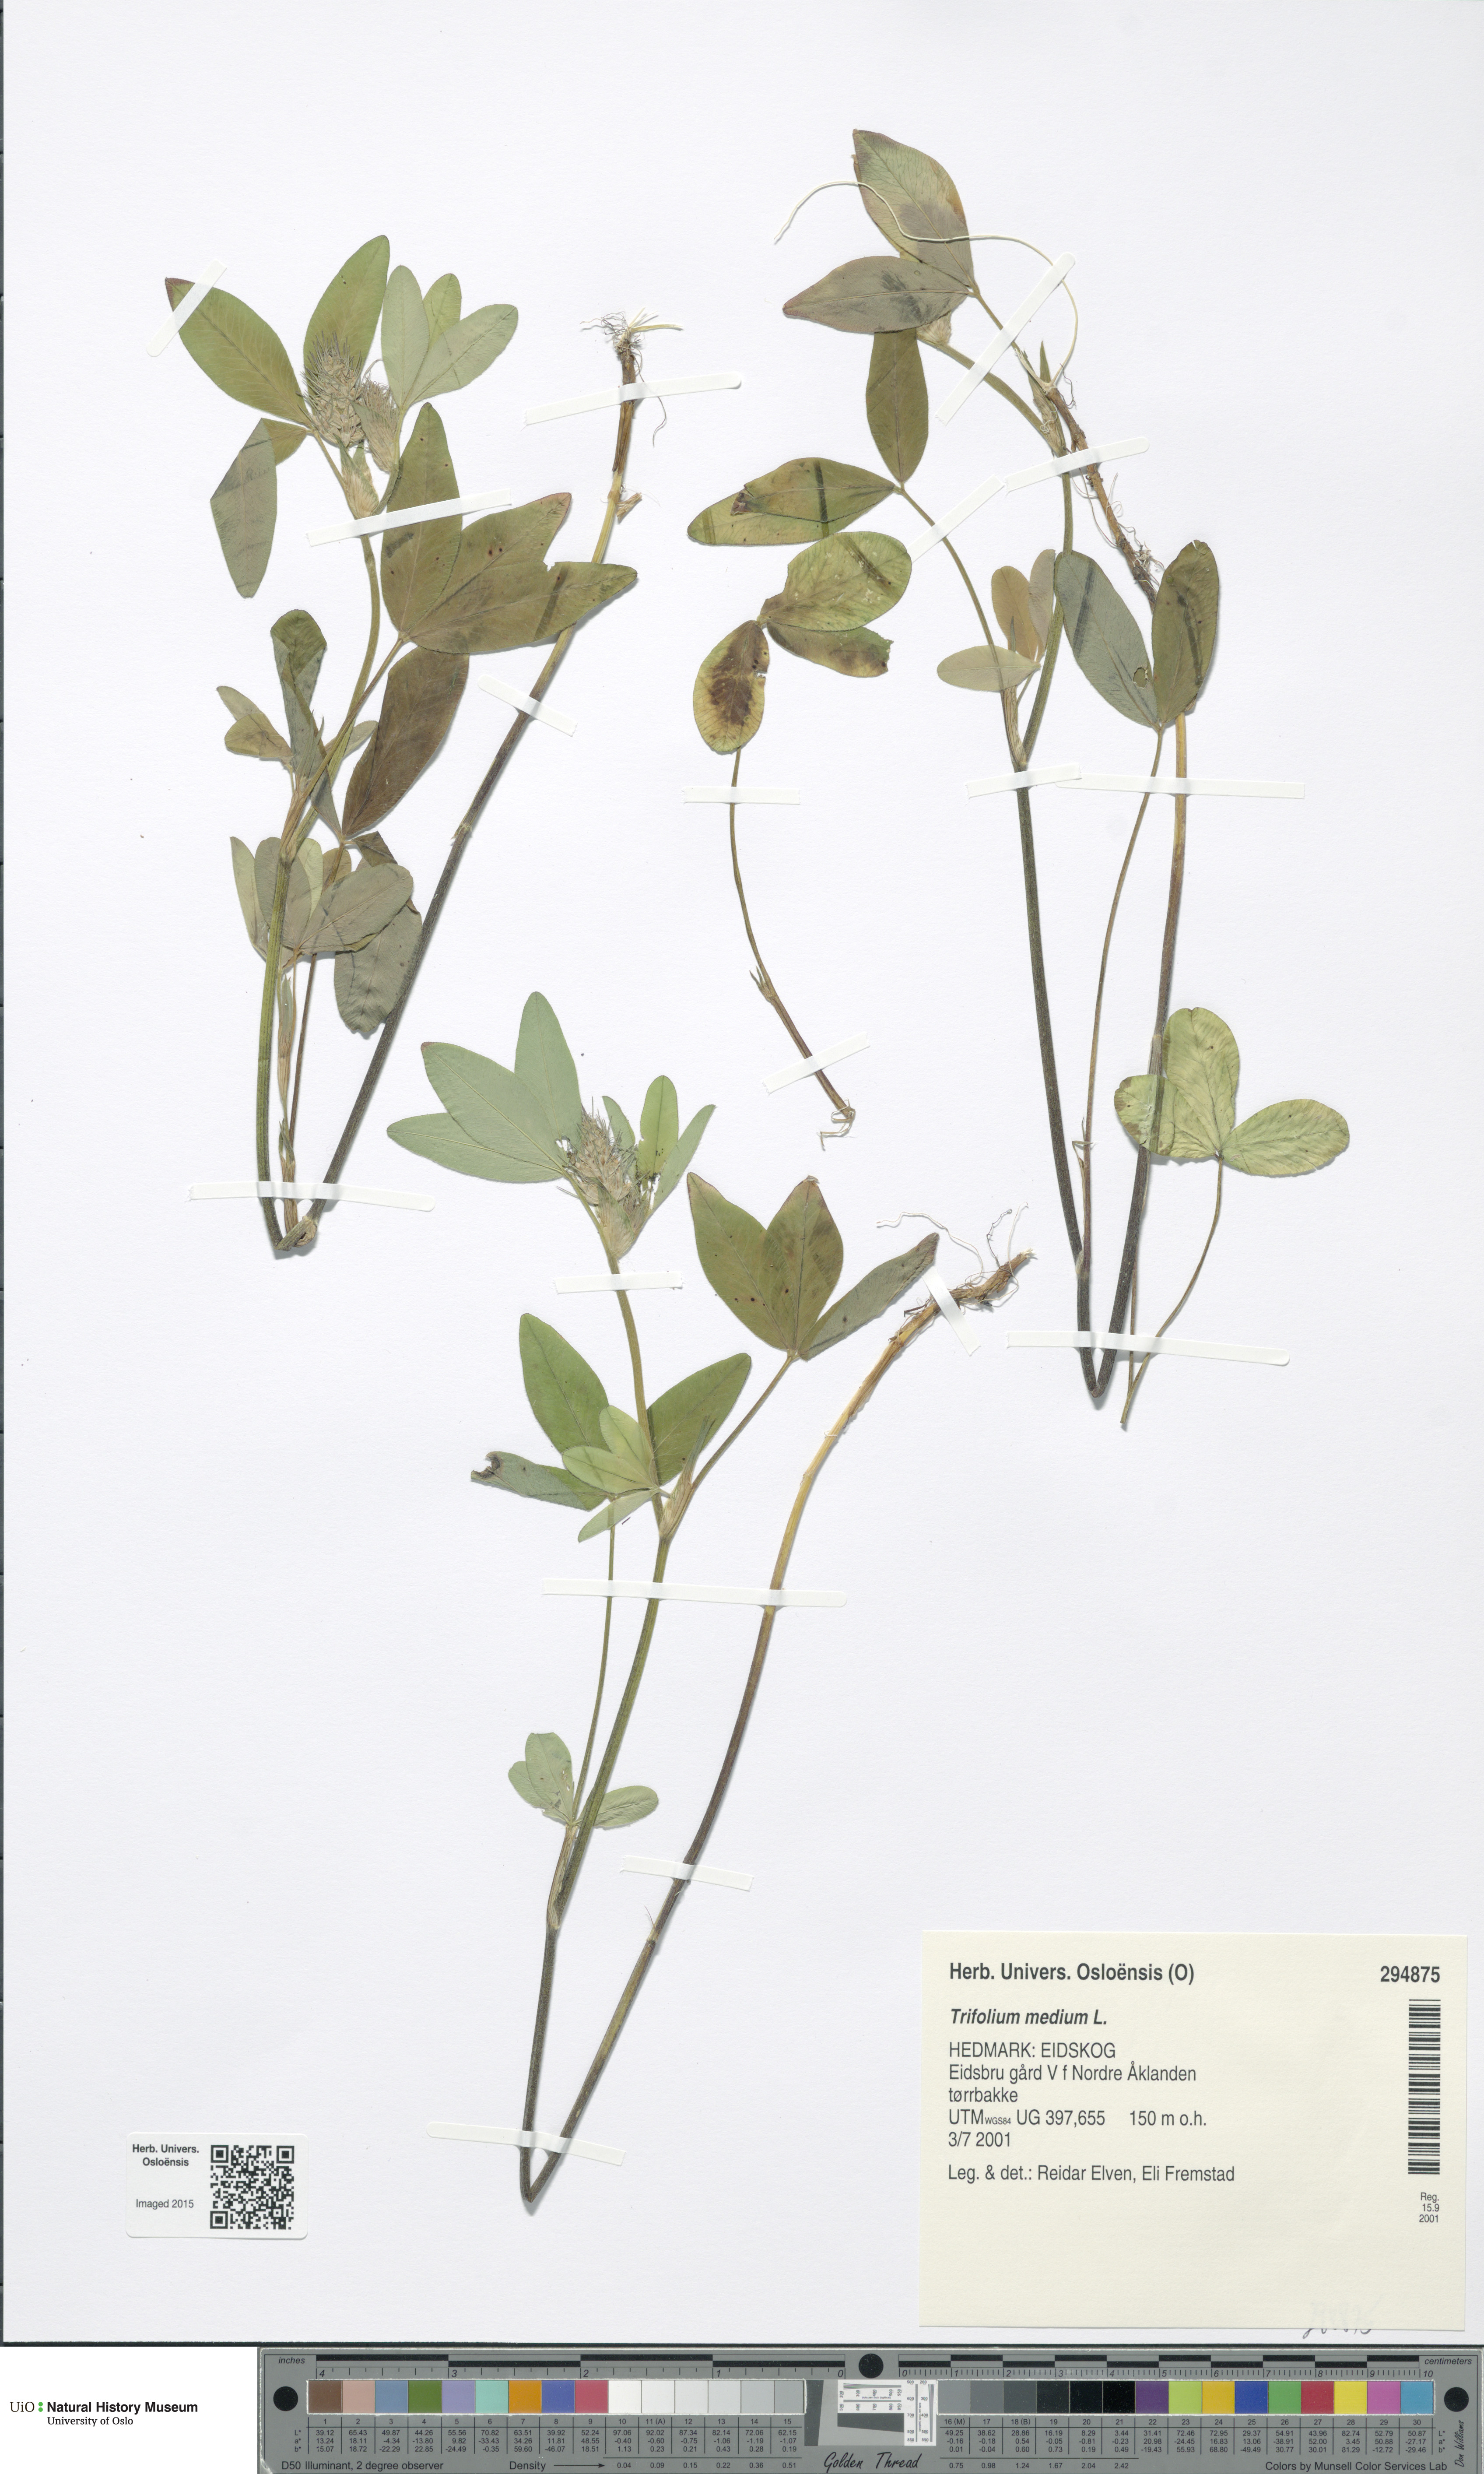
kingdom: Plantae
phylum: Tracheophyta
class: Magnoliopsida
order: Fabales
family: Fabaceae
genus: Trifolium
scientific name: Trifolium medium
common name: Zigzag clover
